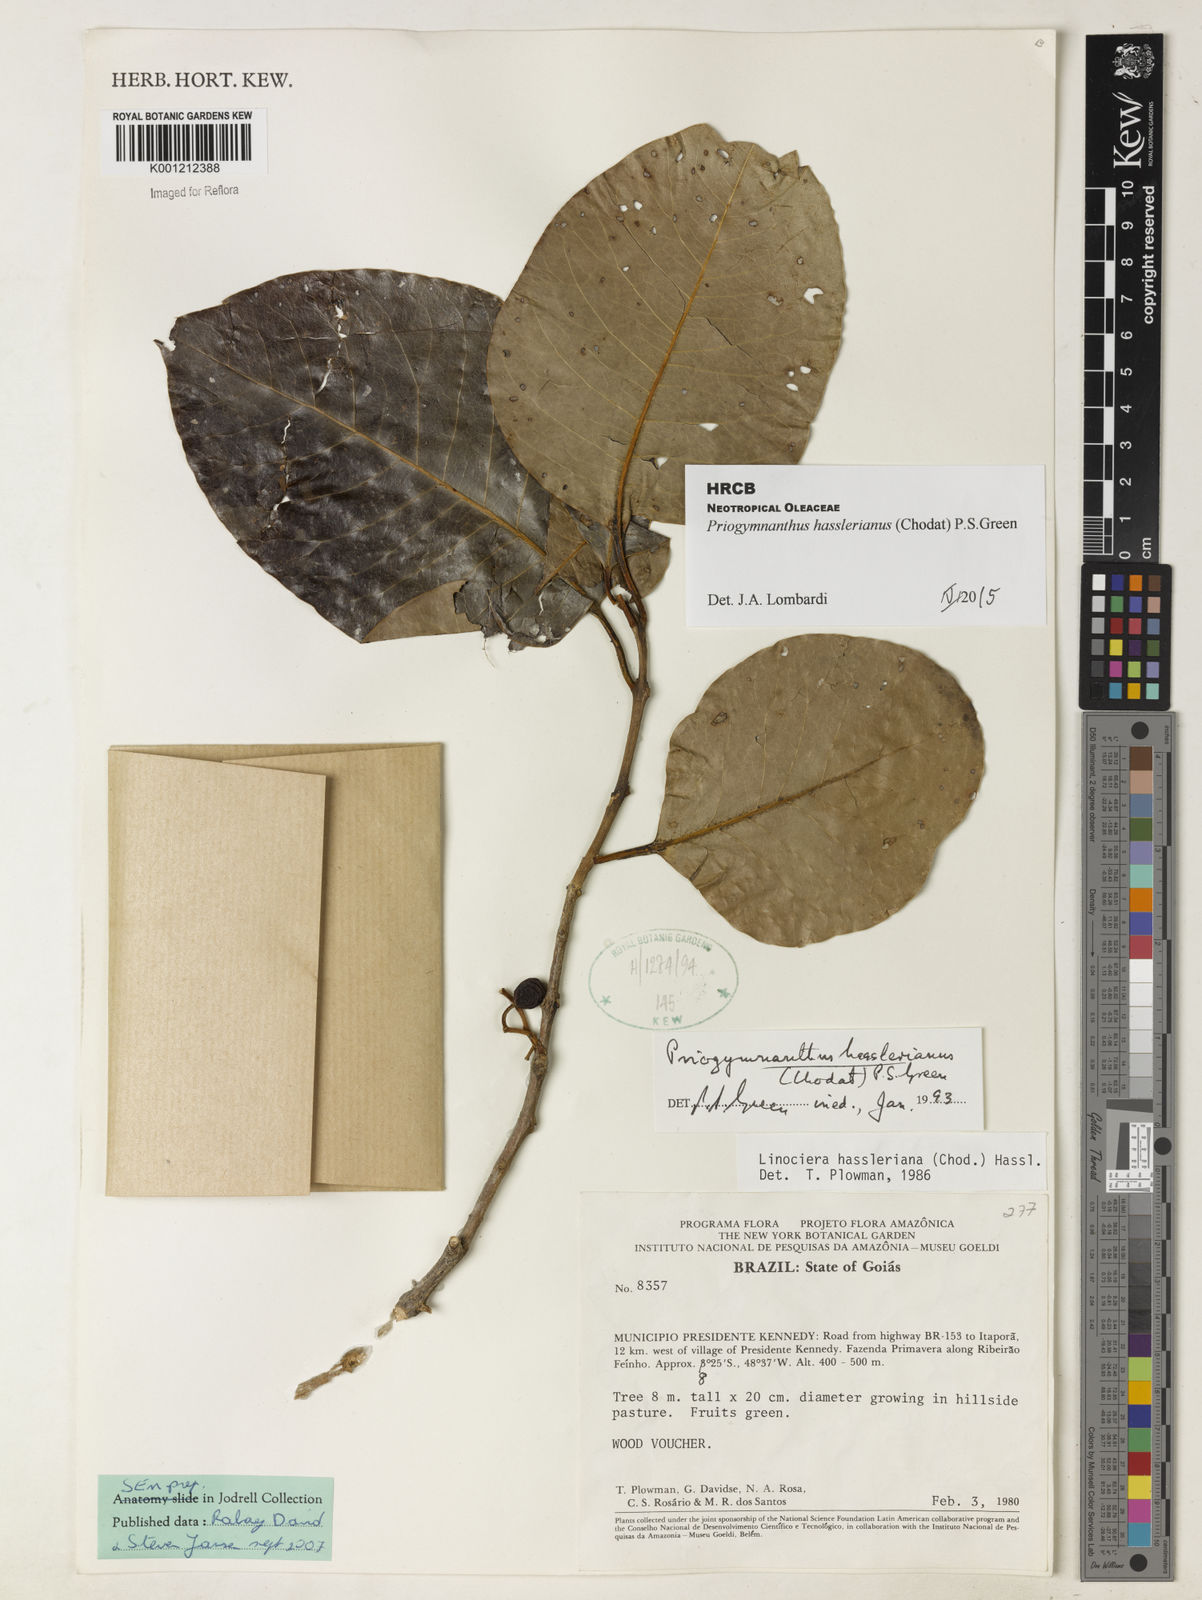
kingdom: Plantae
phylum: Tracheophyta
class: Magnoliopsida
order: Lamiales
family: Oleaceae
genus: Priogymnanthus
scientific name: Priogymnanthus hasslerianus
